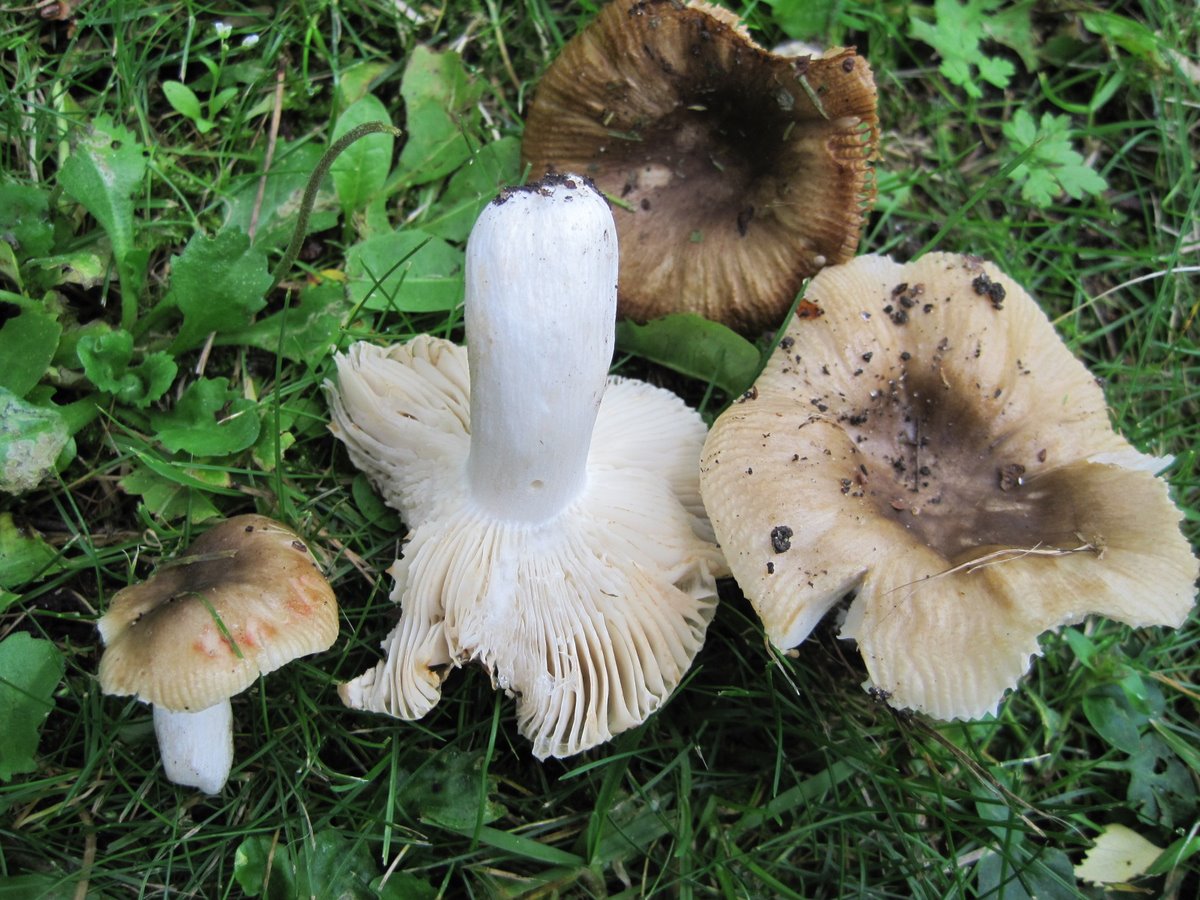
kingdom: Fungi
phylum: Basidiomycota
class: Agaricomycetes
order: Russulales
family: Russulaceae
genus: Russula
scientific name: Russula recondita
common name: mild kam-skørhat
